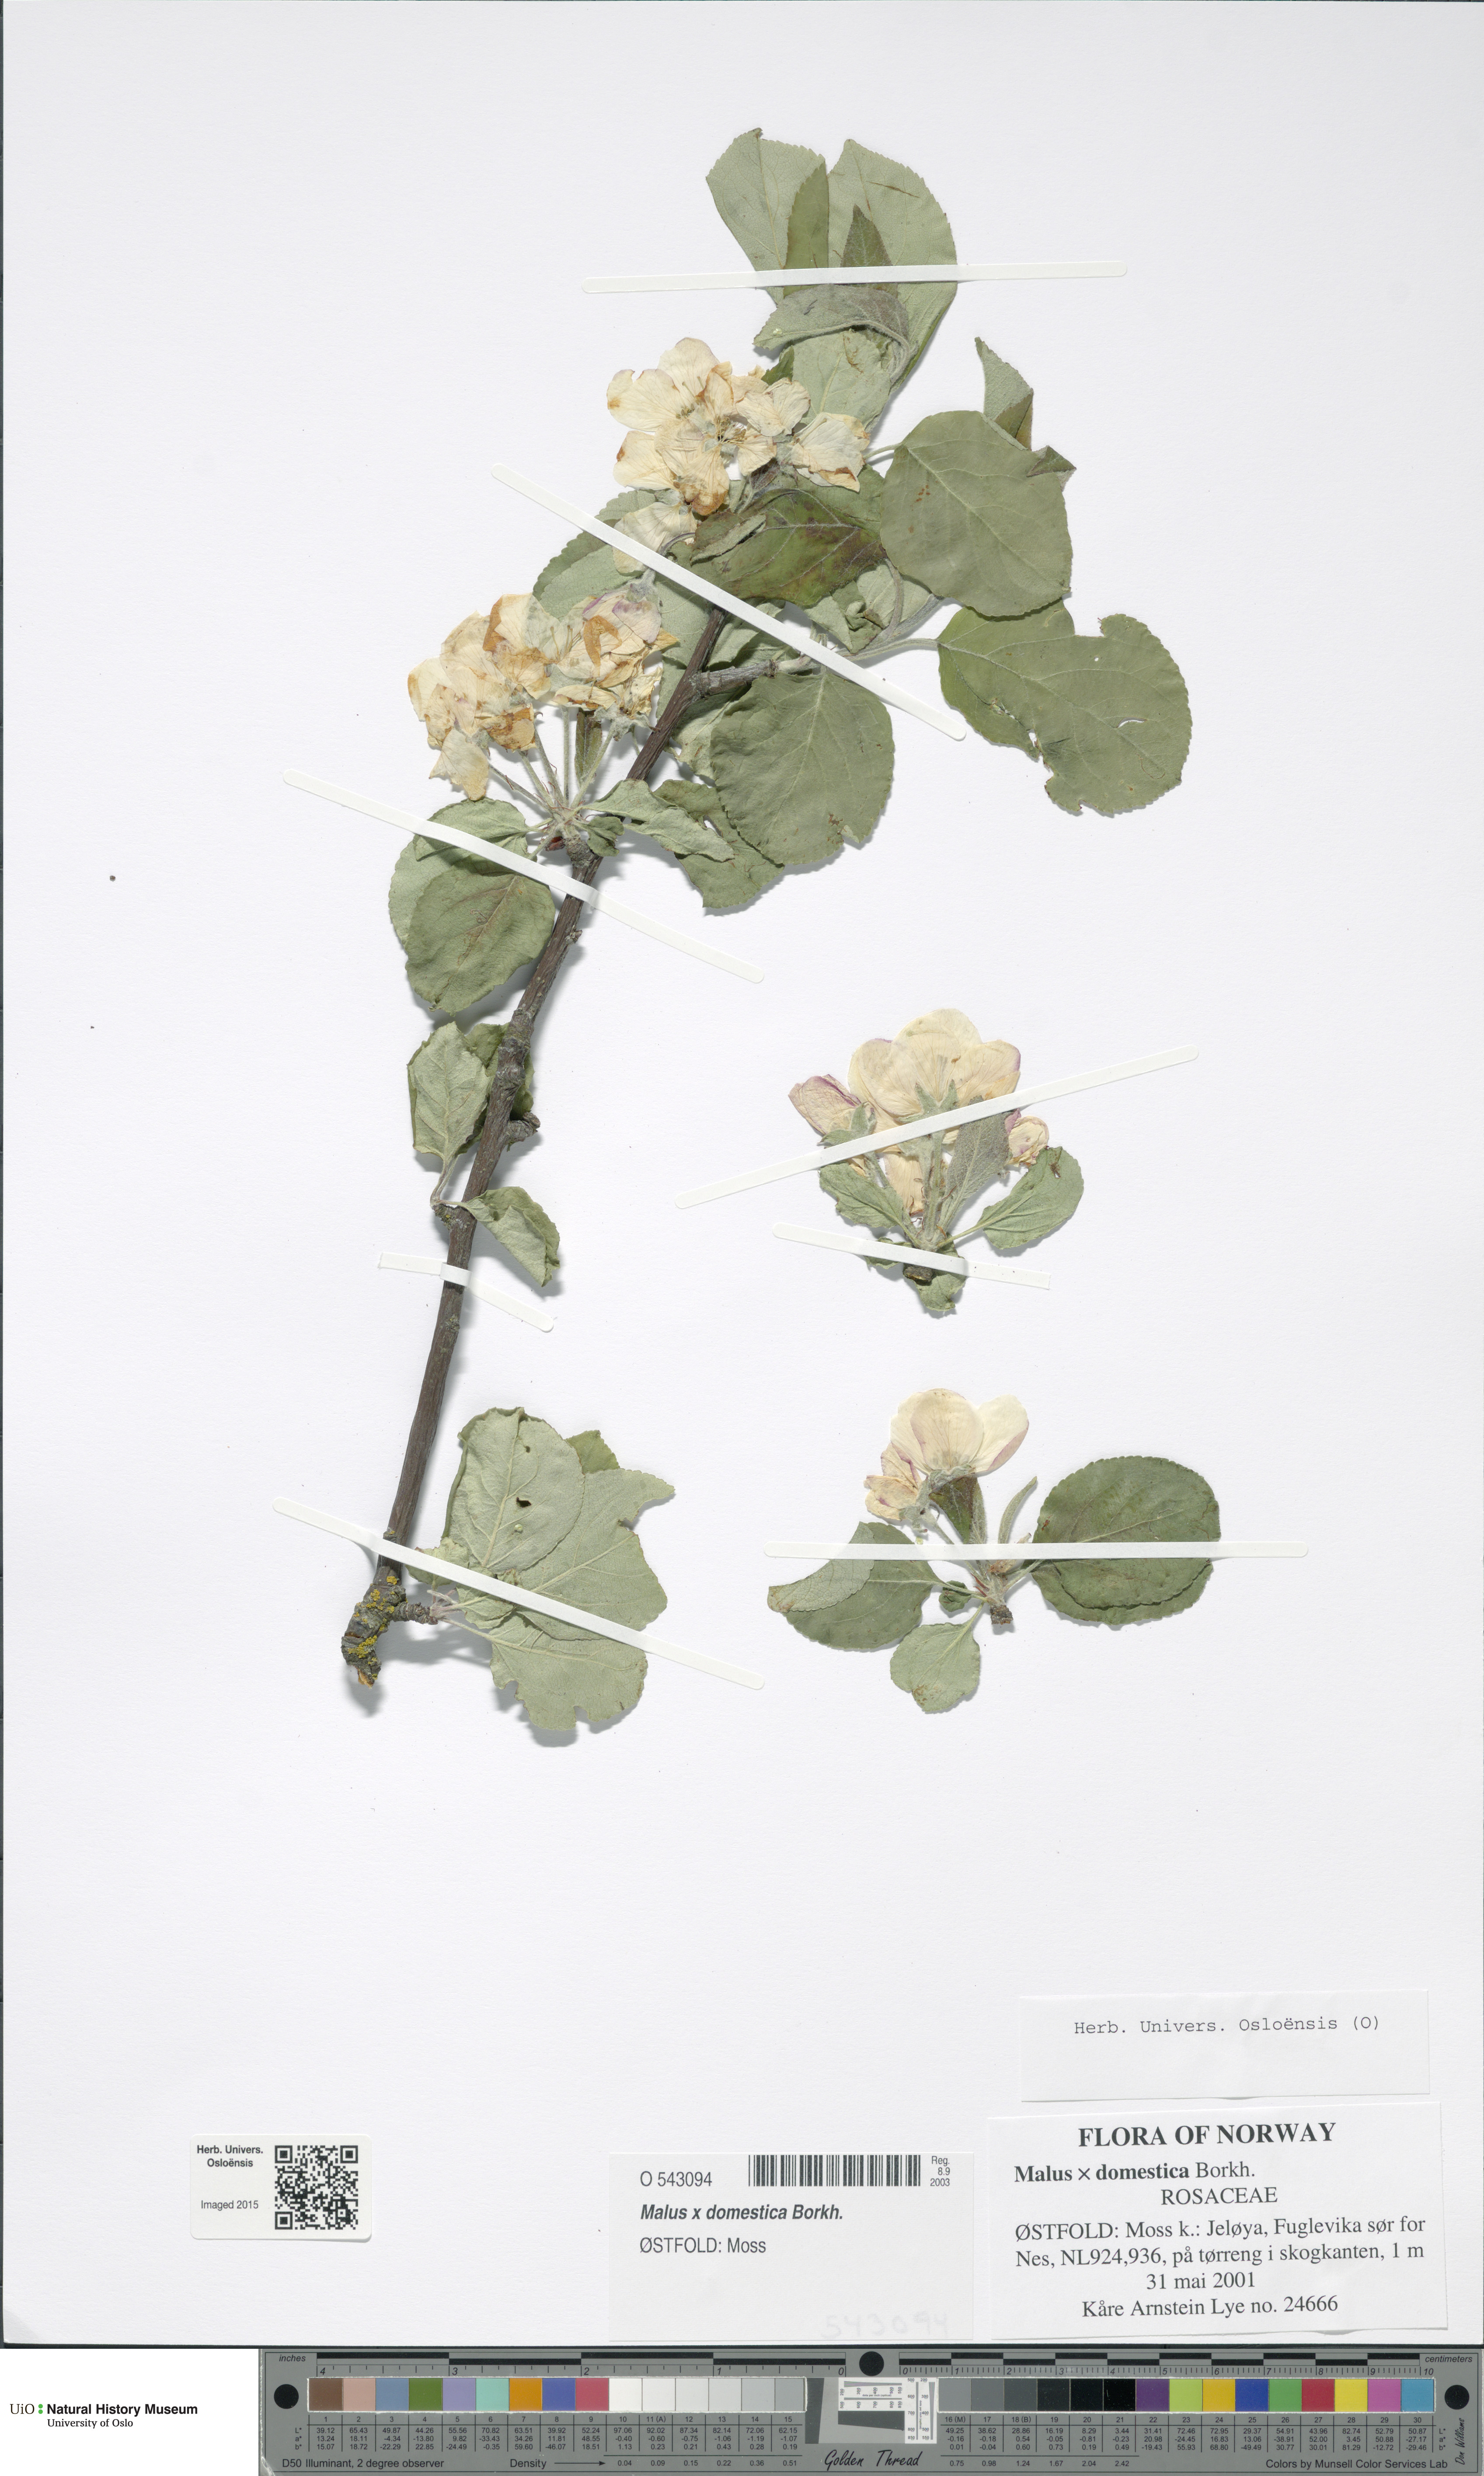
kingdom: Plantae
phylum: Tracheophyta
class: Magnoliopsida
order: Rosales
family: Rosaceae
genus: Malus
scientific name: Malus domestica
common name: Apple
